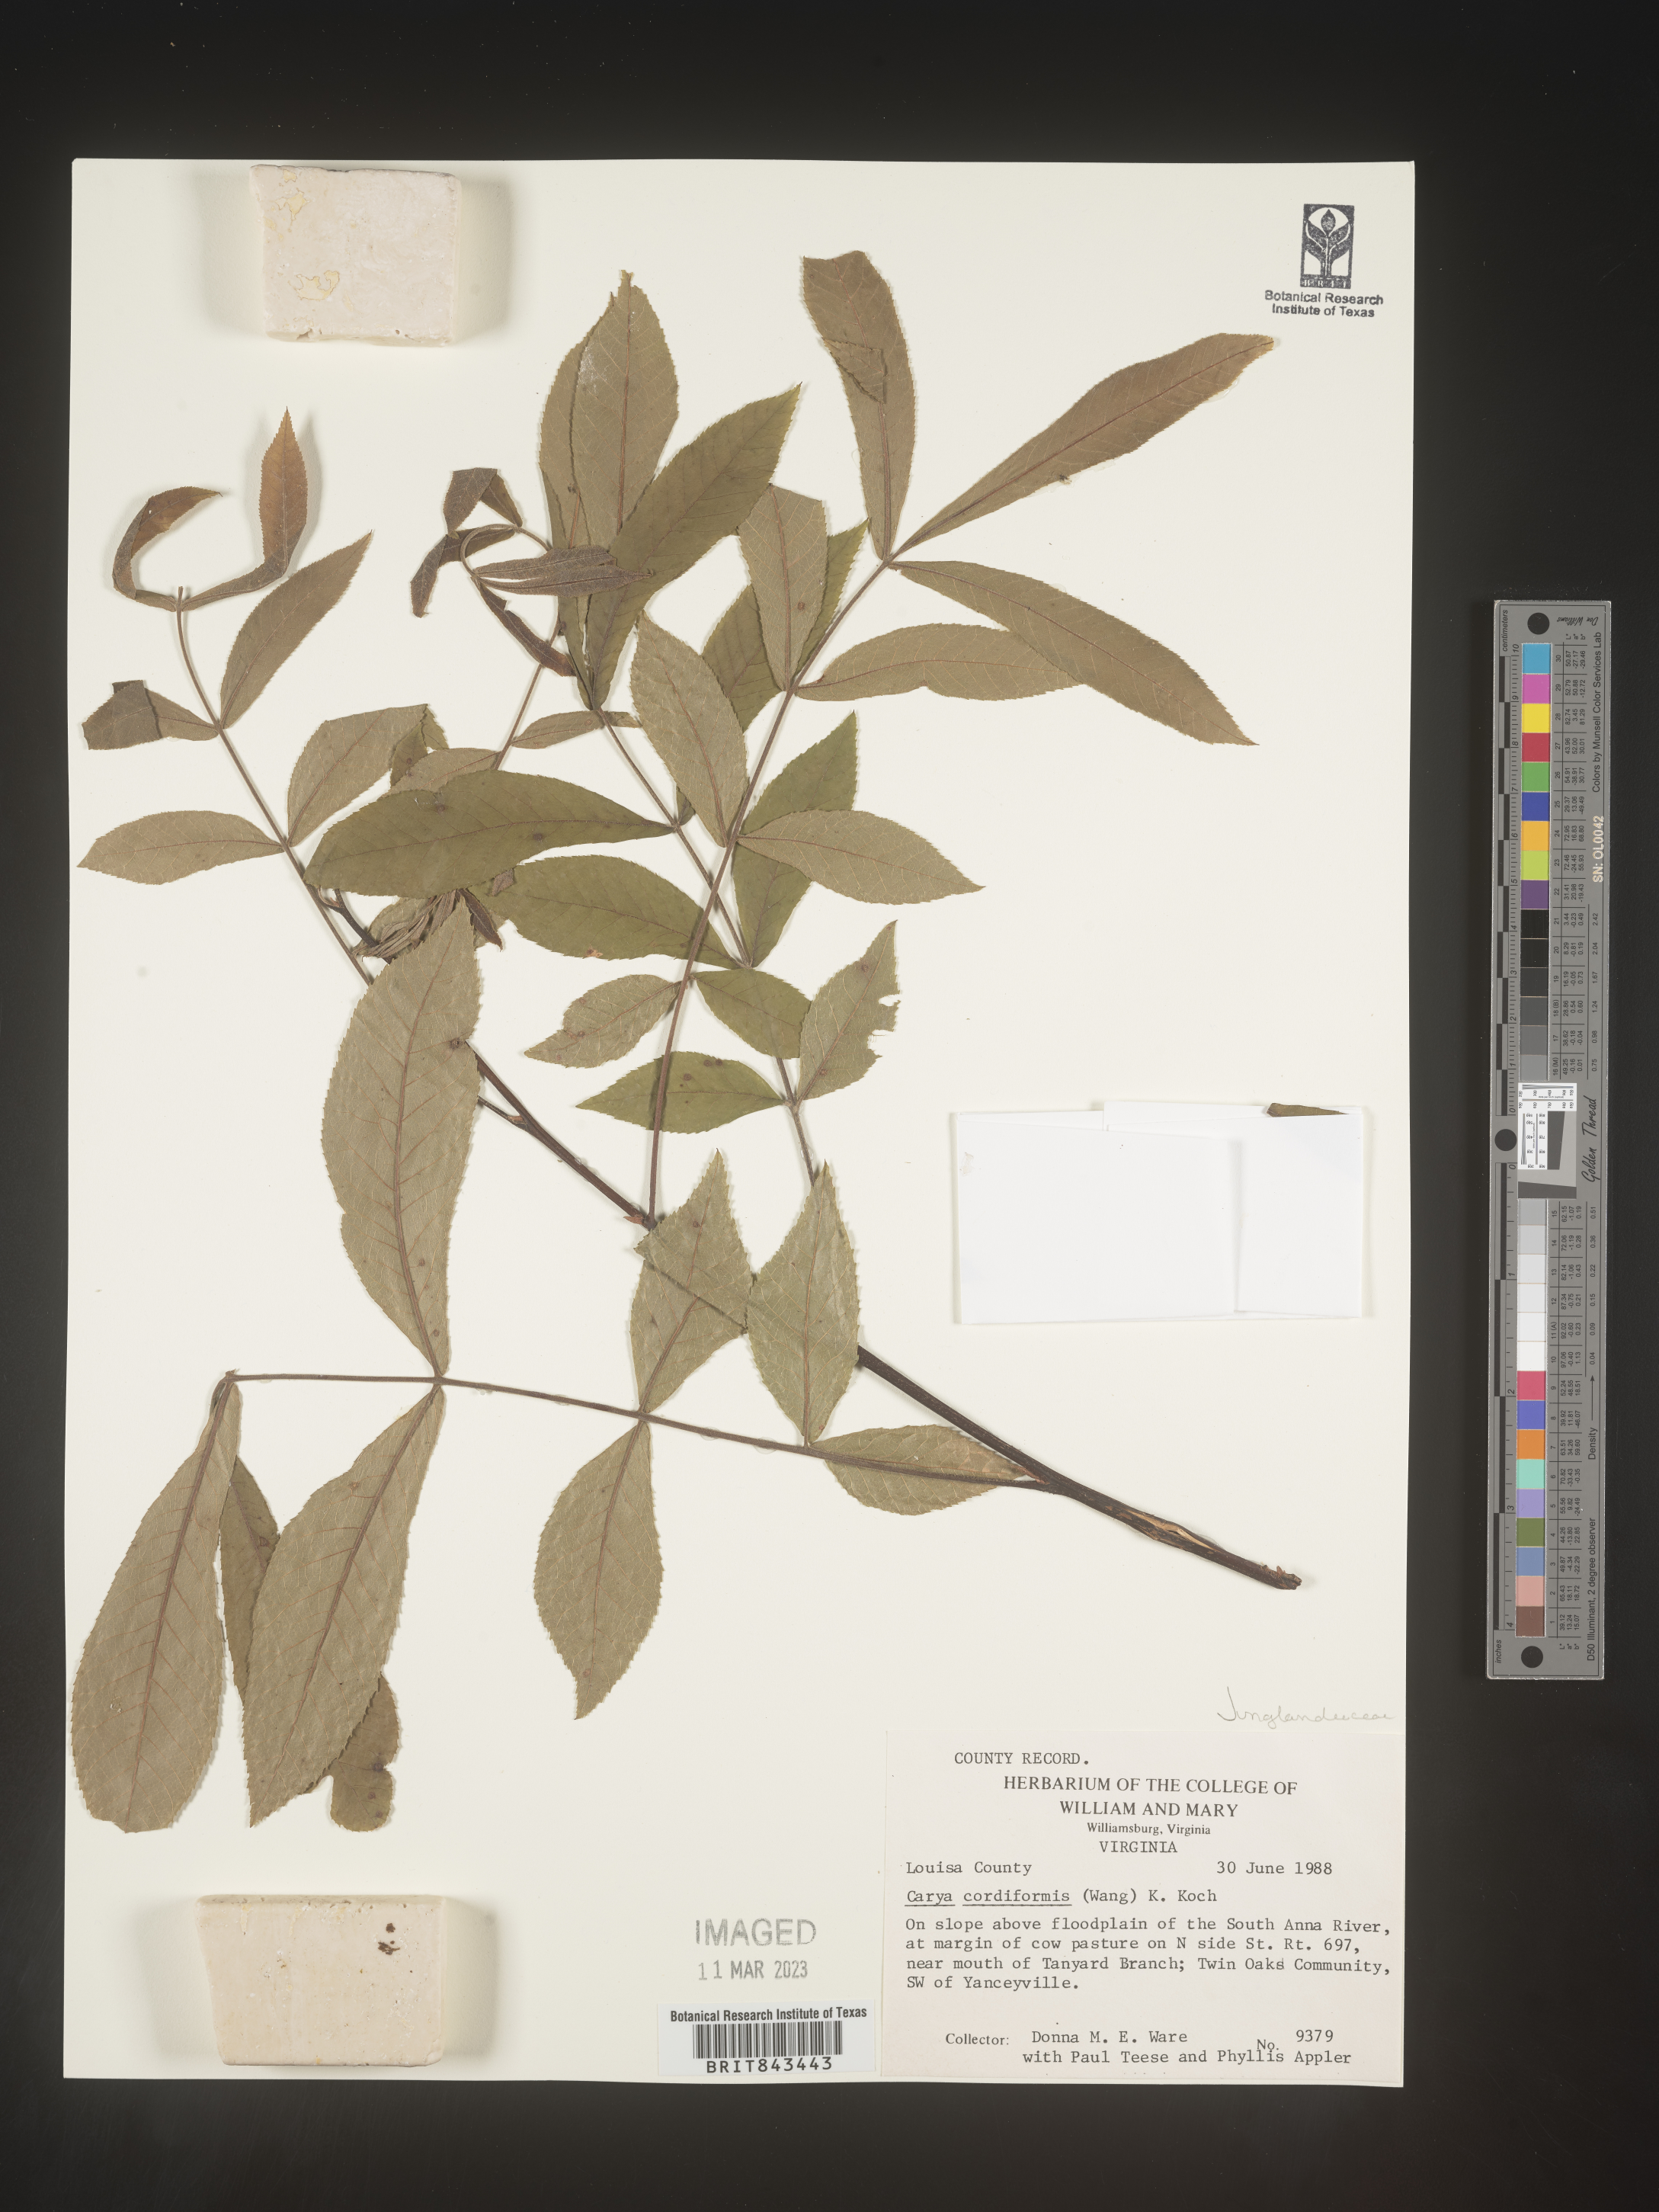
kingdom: Plantae
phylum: Tracheophyta
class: Magnoliopsida
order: Fagales
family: Juglandaceae
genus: Carya
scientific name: Carya cordiformis
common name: Bitternut hickory
